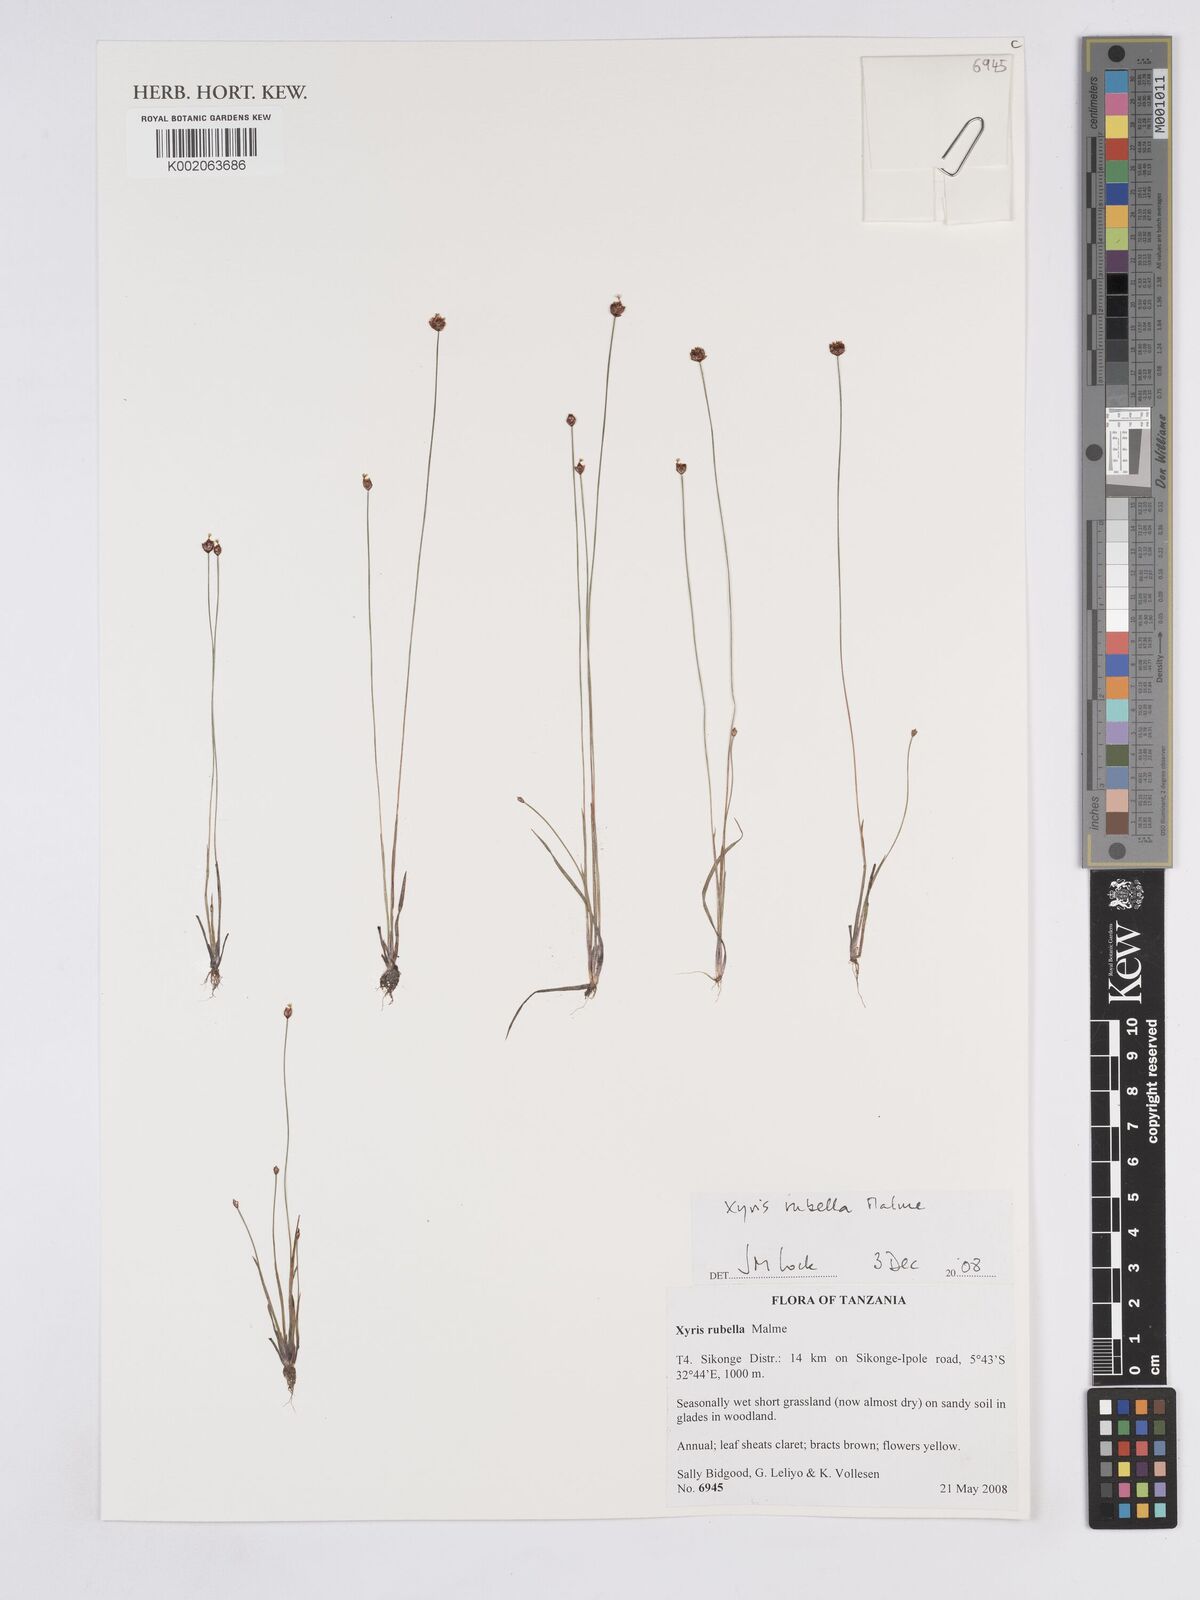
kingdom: Plantae
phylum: Tracheophyta
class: Liliopsida
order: Poales
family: Xyridaceae
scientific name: Xyridaceae
